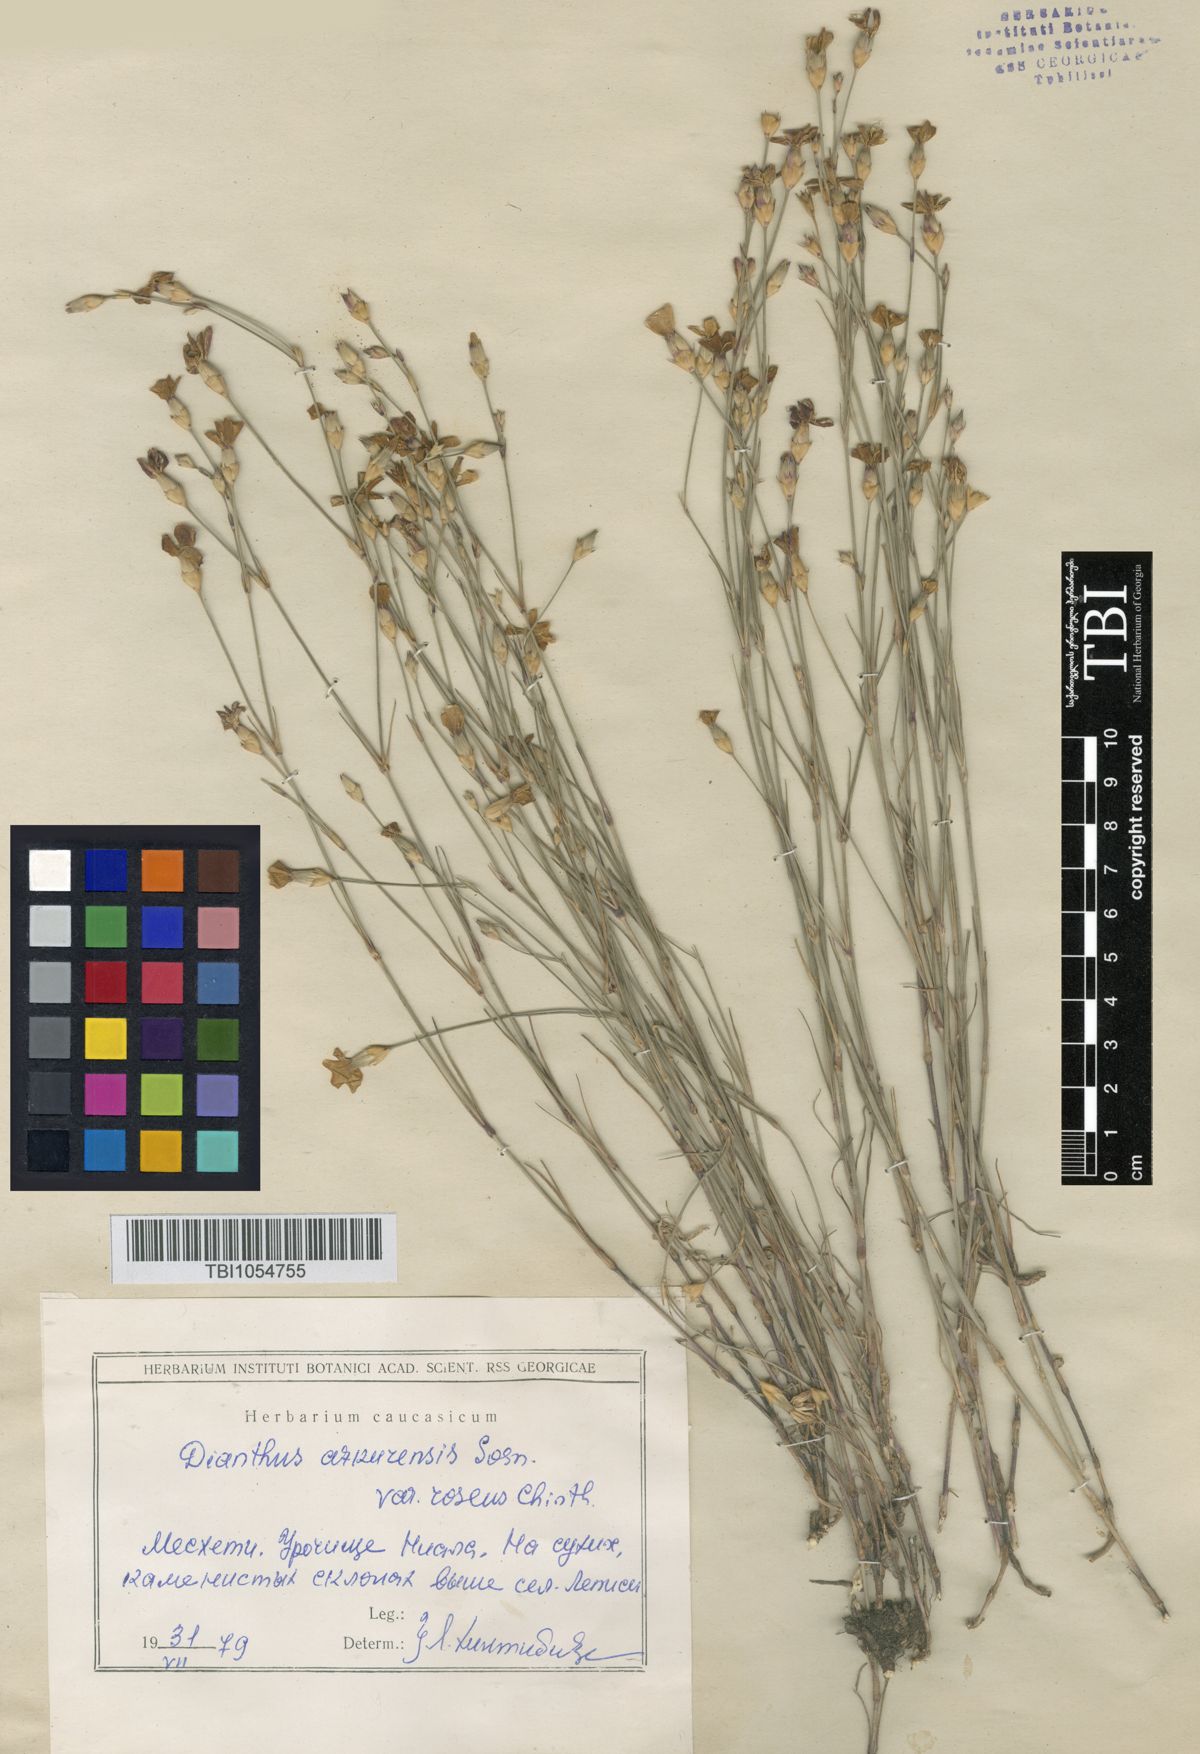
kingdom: Plantae
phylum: Tracheophyta
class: Magnoliopsida
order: Caryophyllales
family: Caryophyllaceae
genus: Dianthus
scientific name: Dianthus
